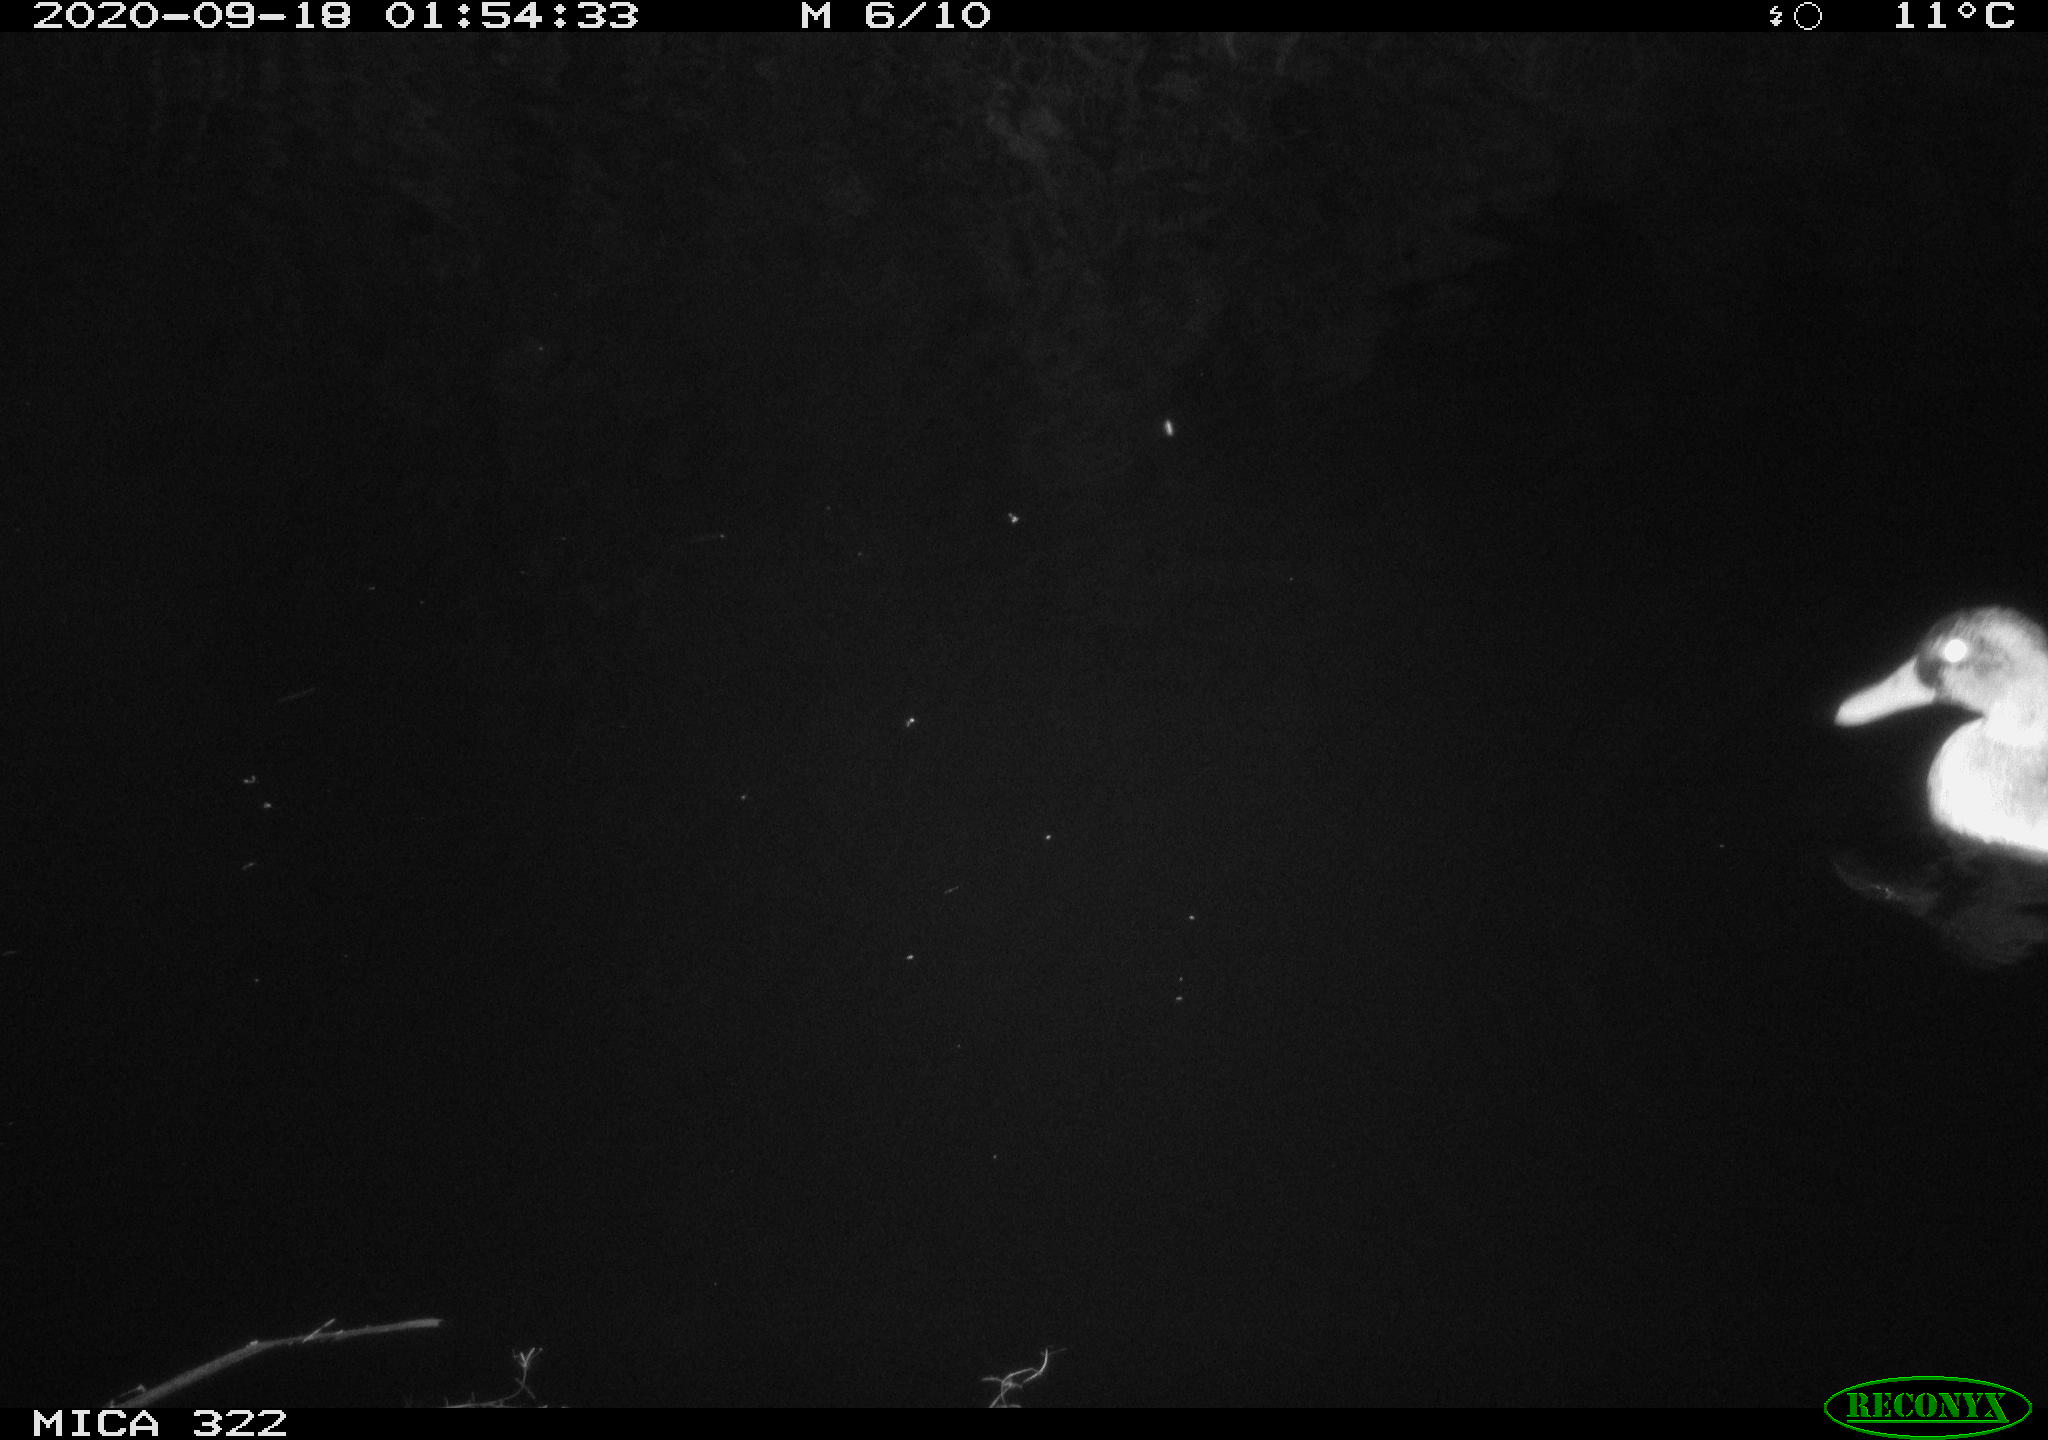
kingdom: Animalia
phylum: Chordata
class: Aves
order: Anseriformes
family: Anatidae
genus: Anas
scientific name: Anas platyrhynchos
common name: Mallard
